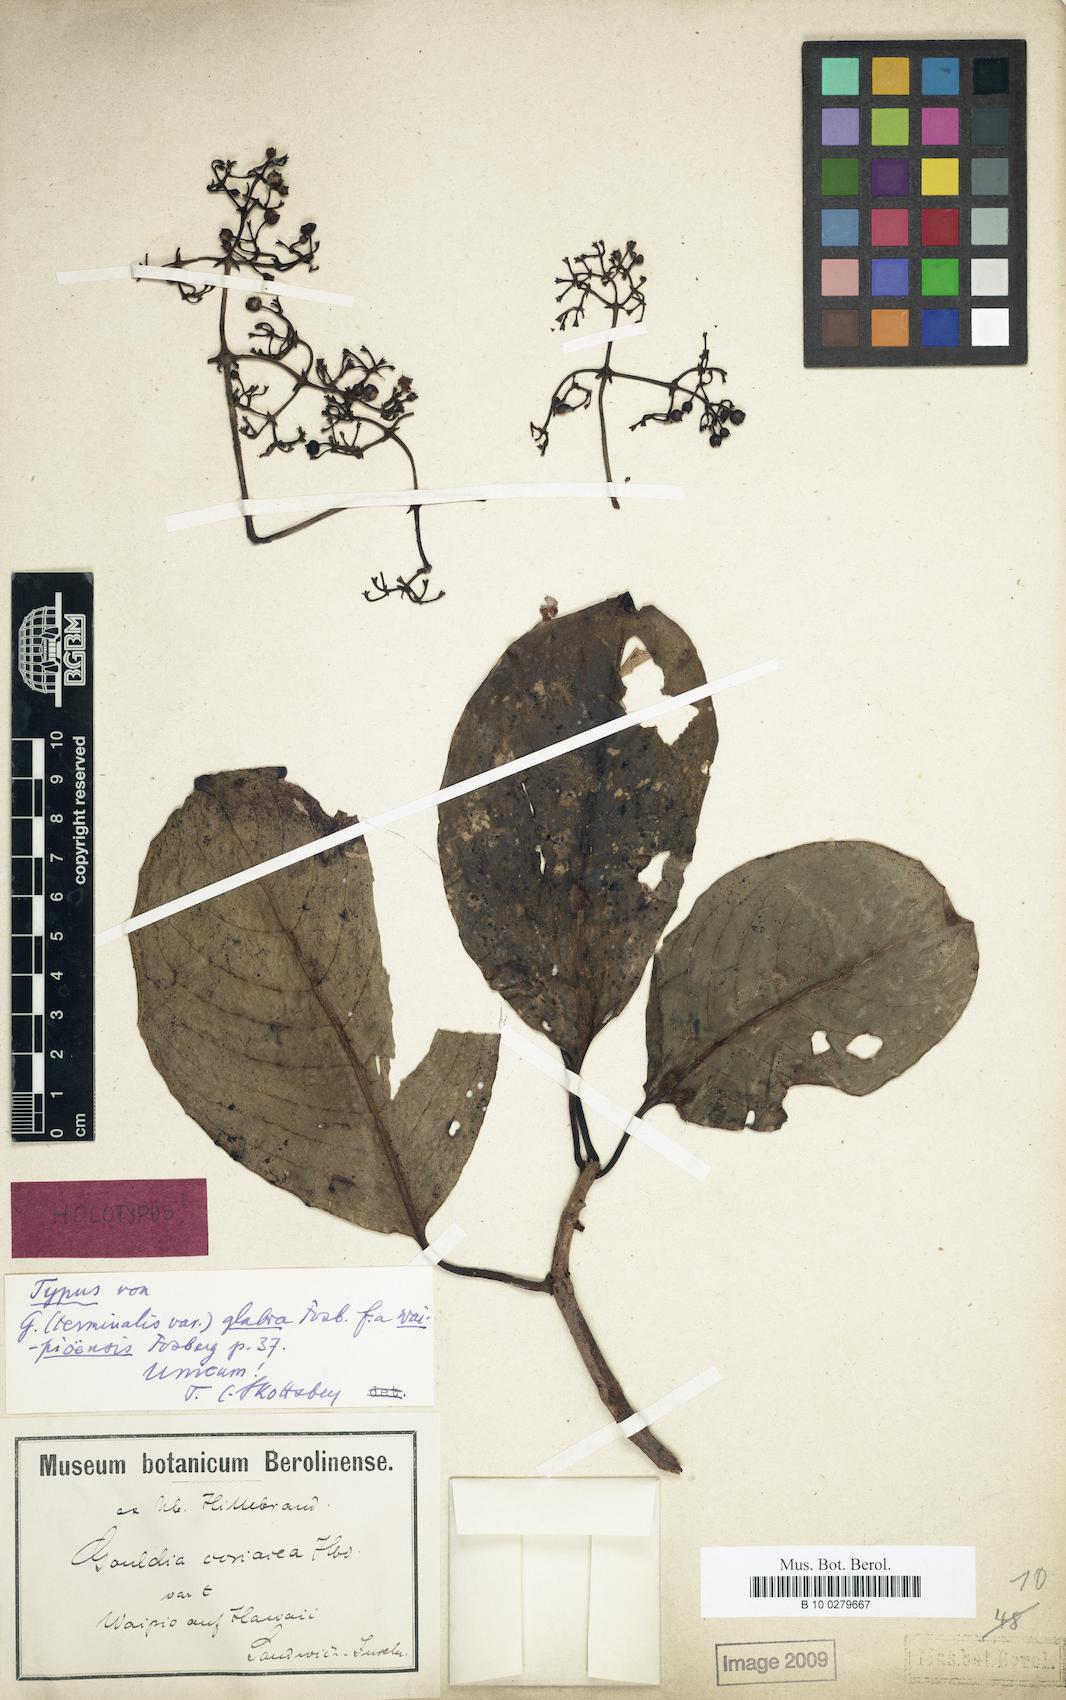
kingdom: Plantae
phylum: Tracheophyta
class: Magnoliopsida
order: Gentianales
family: Rubiaceae
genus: Kadua
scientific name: Kadua affinis
